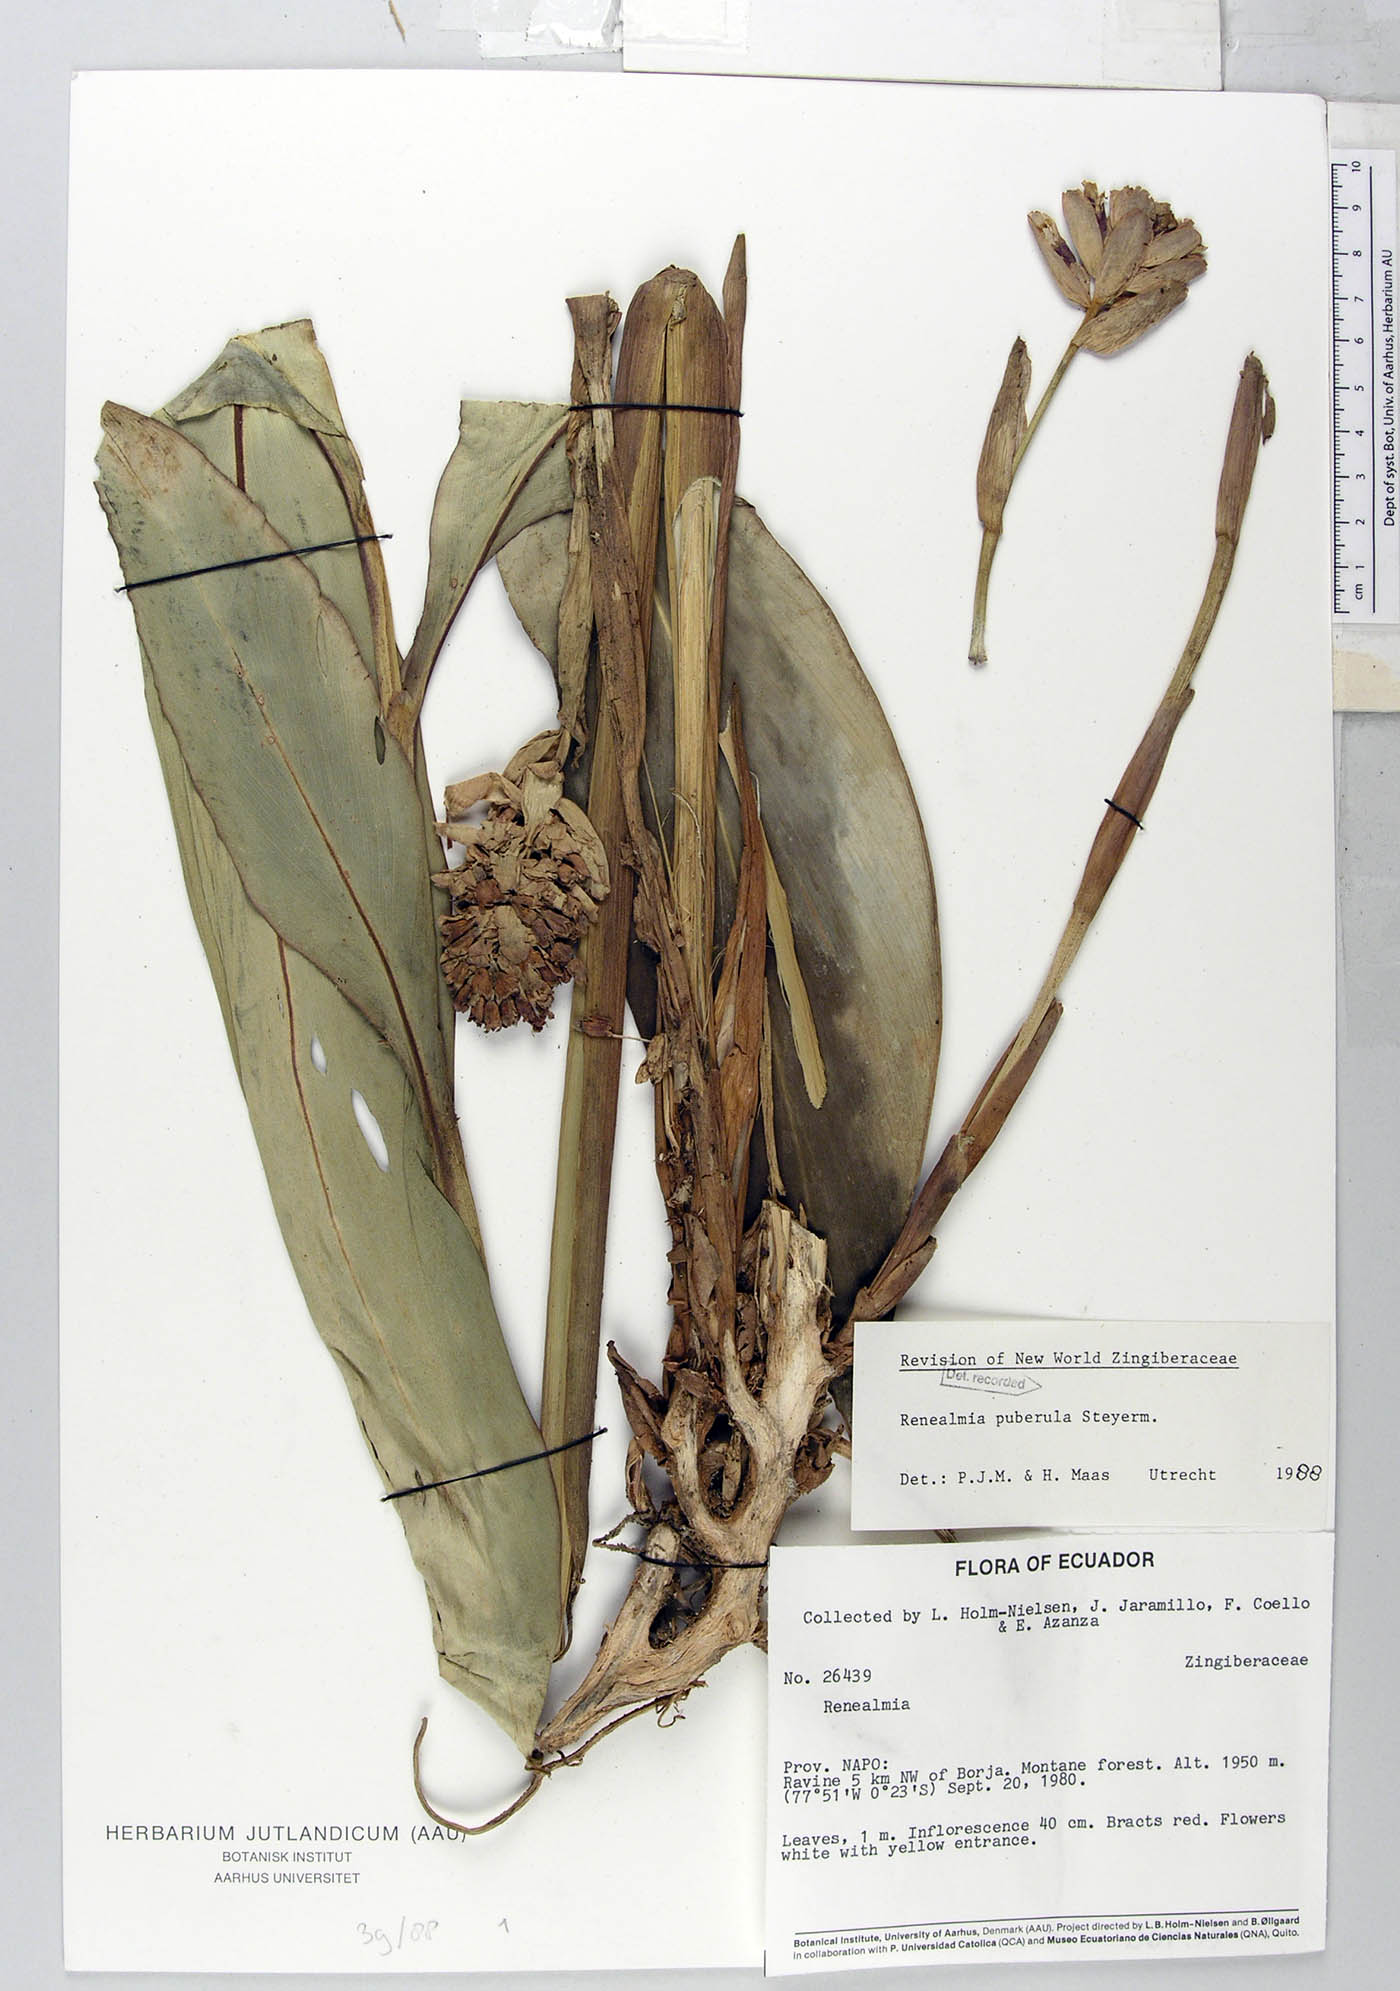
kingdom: Plantae
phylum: Tracheophyta
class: Liliopsida
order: Zingiberales
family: Zingiberaceae
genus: Renealmia
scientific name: Renealmia puberula
